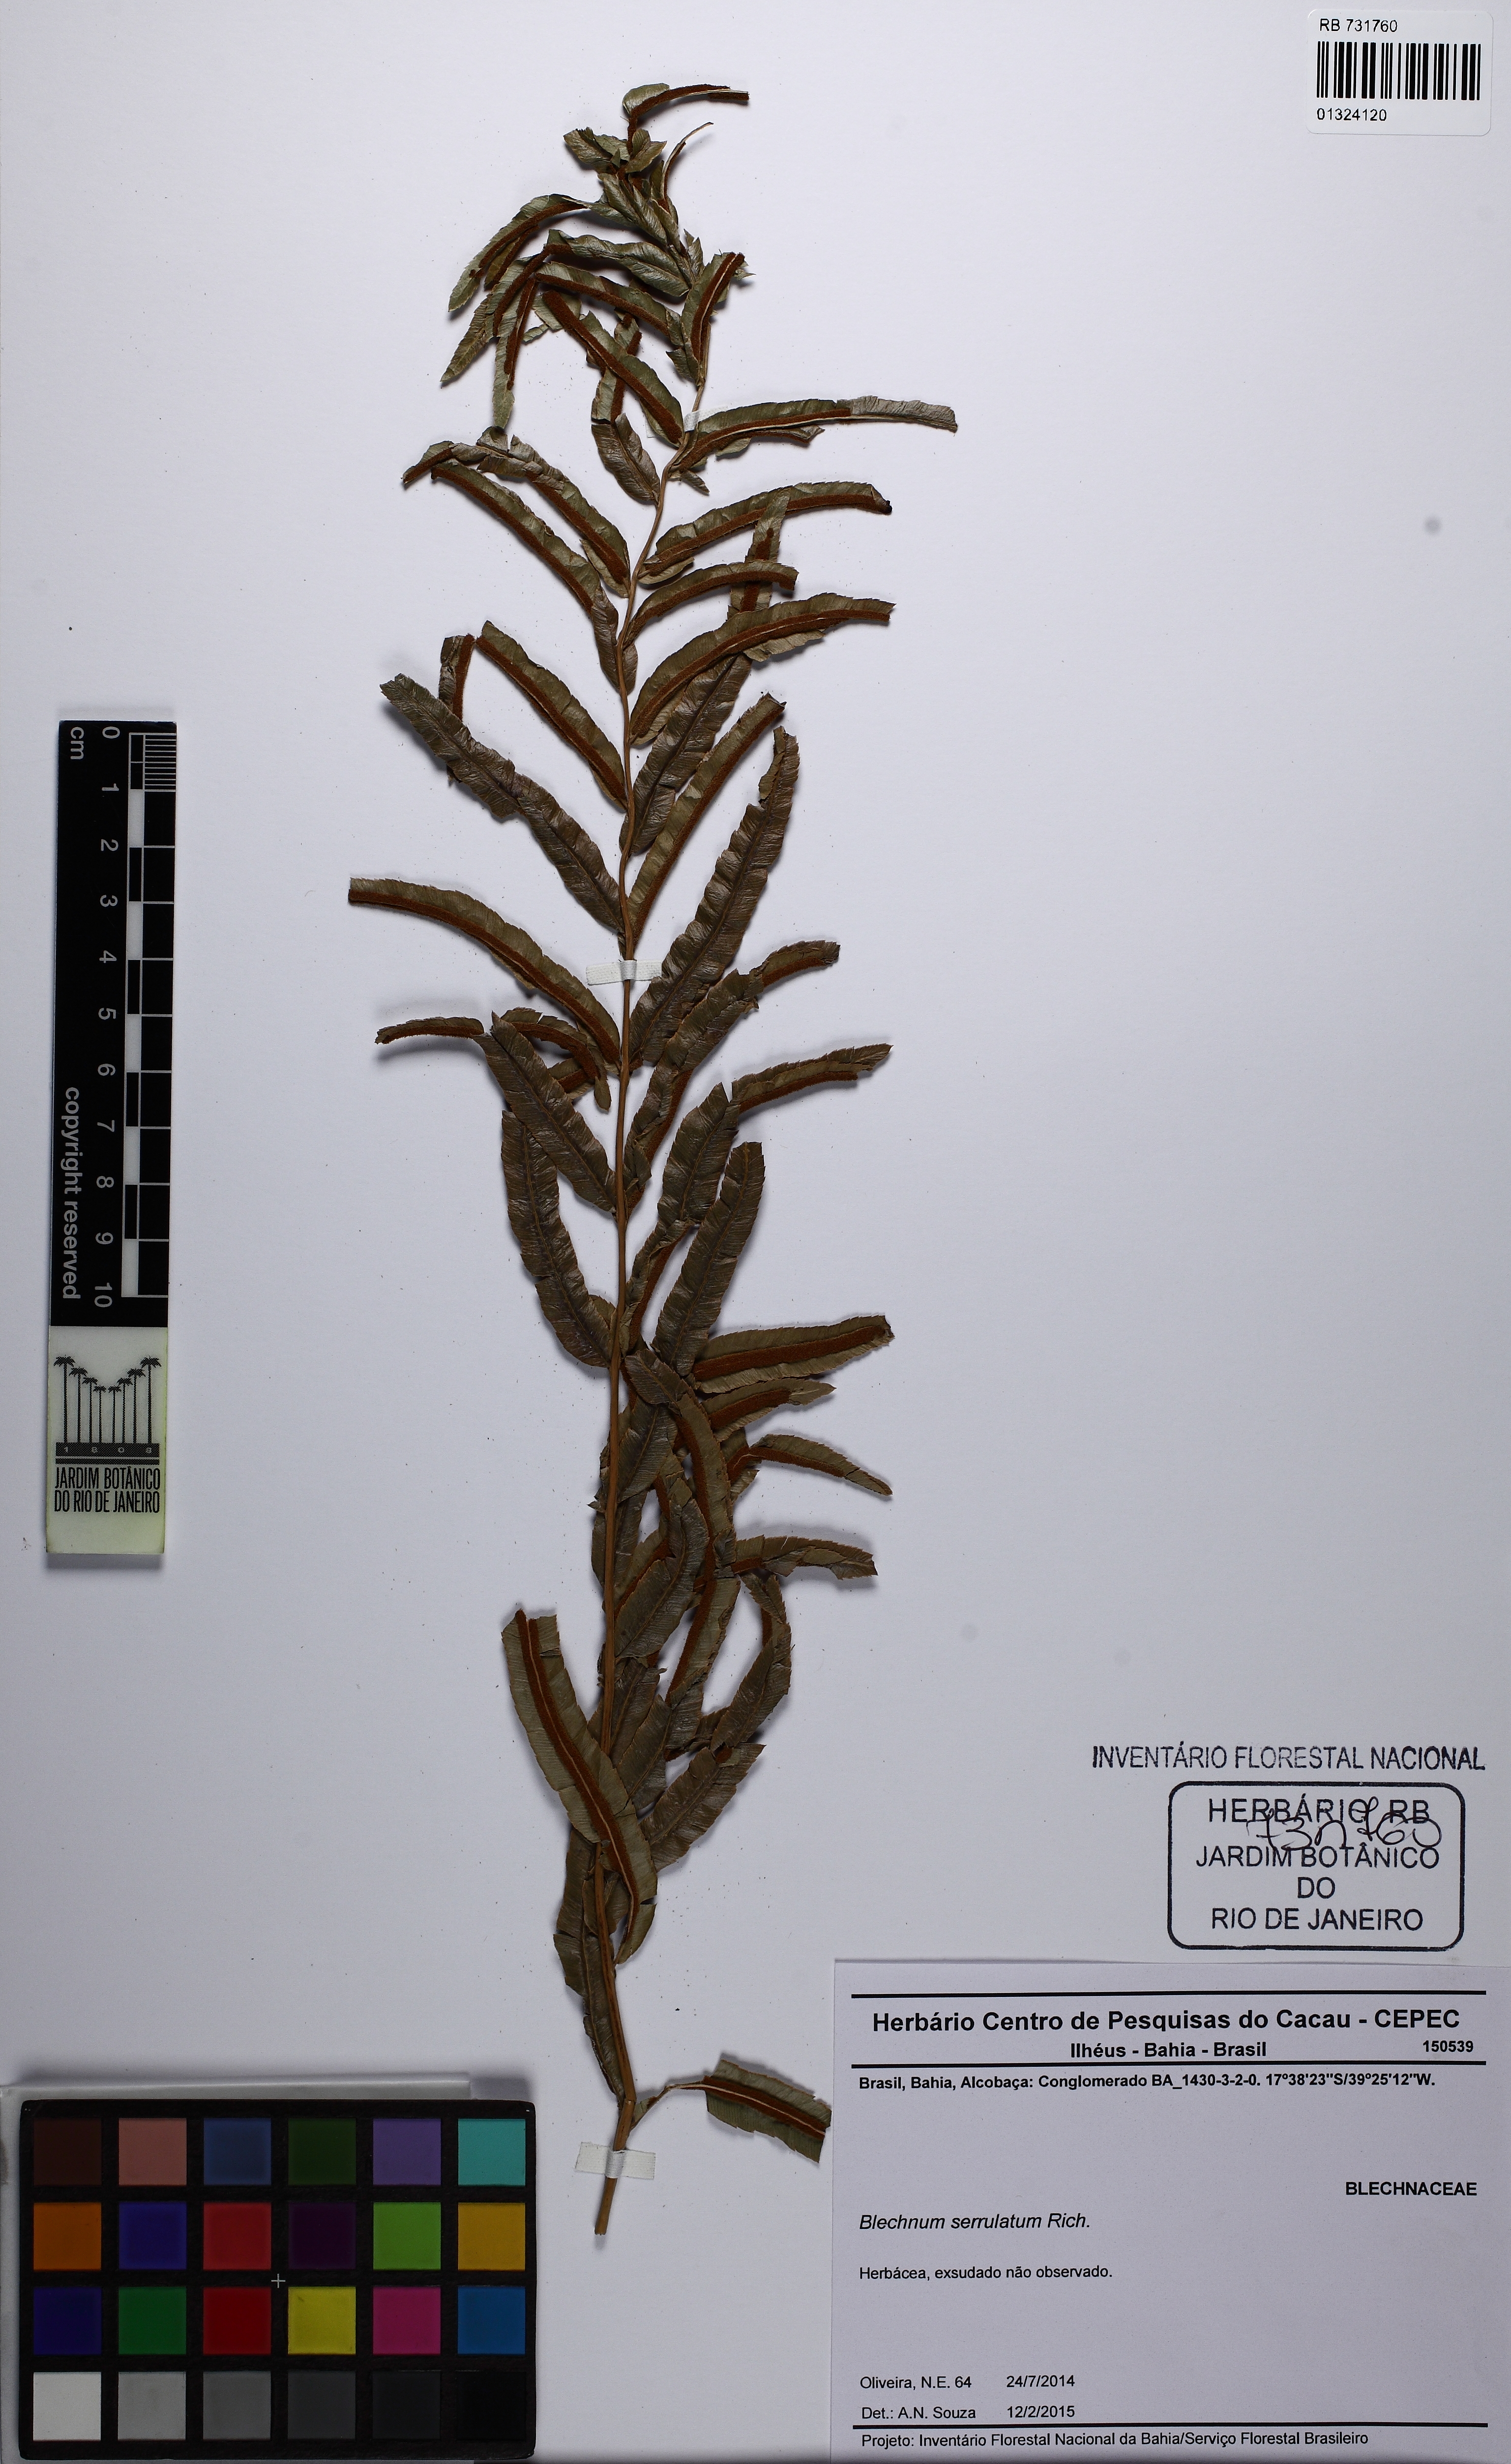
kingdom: Plantae
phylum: Tracheophyta
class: Polypodiopsida
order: Polypodiales
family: Blechnaceae
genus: Telmatoblechnum
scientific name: Telmatoblechnum serrulatum
